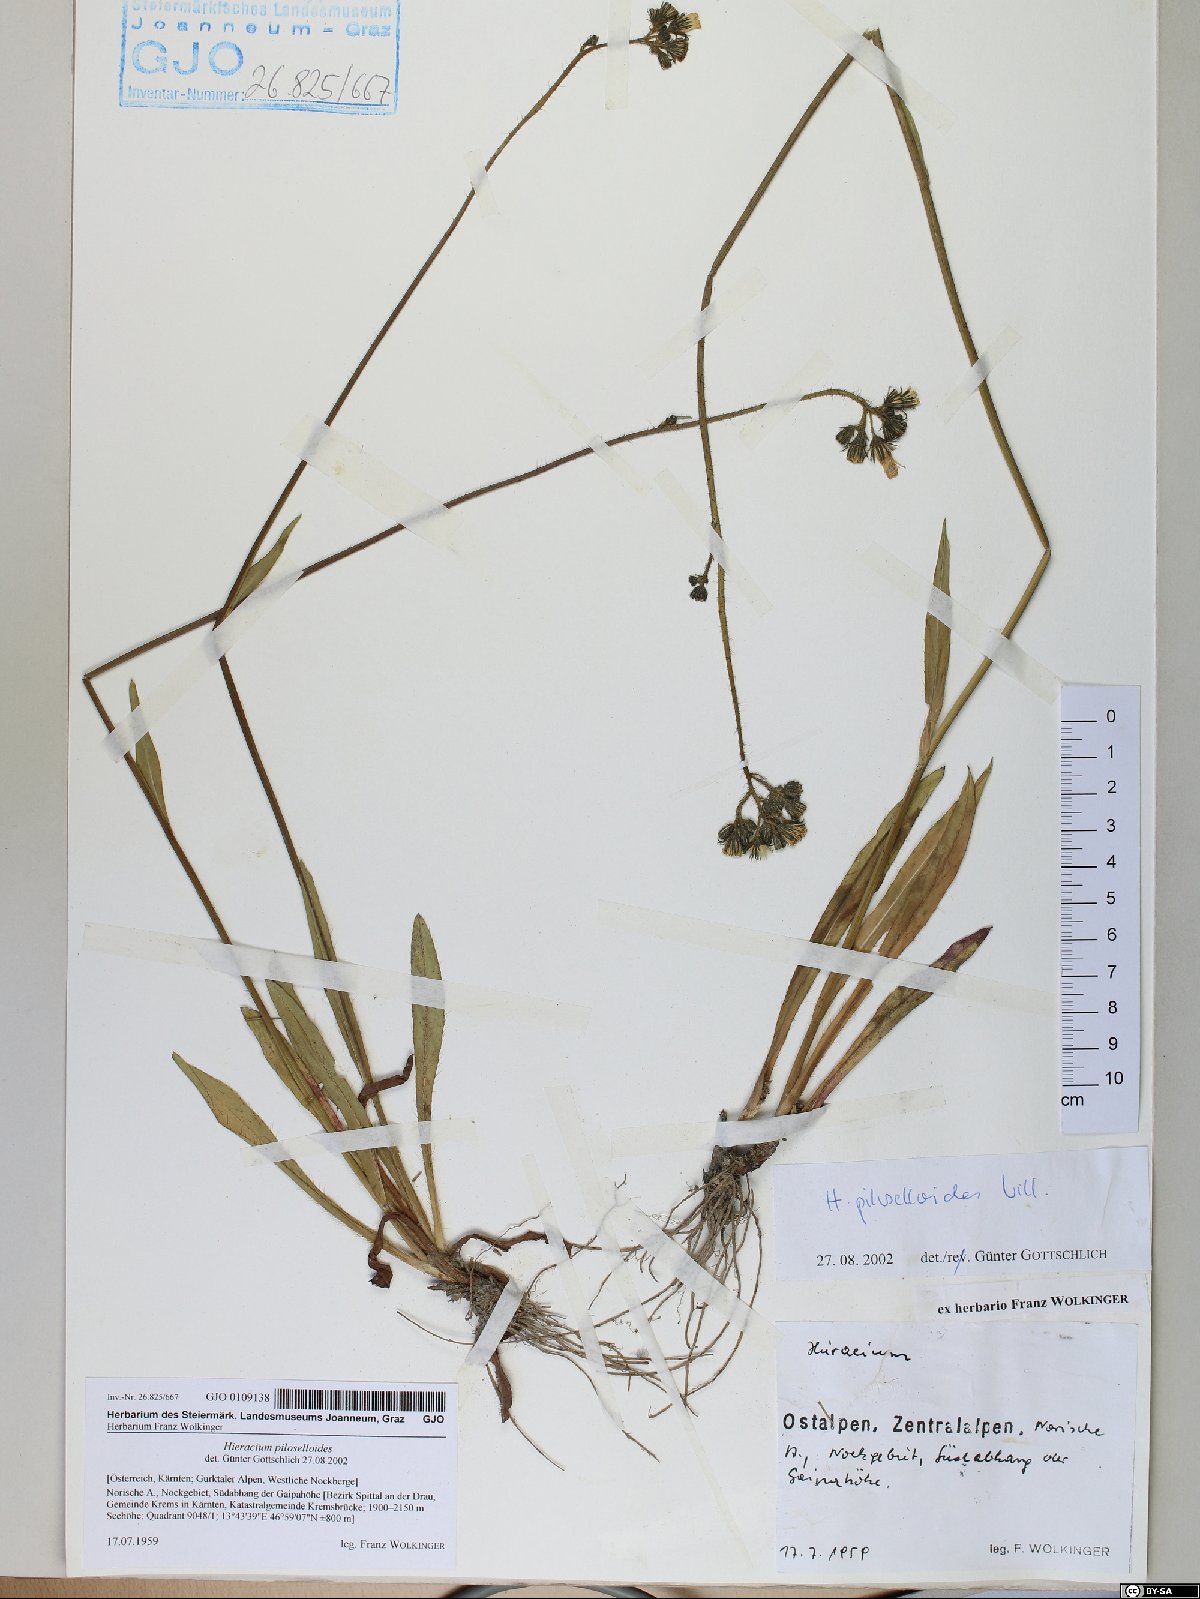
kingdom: Plantae
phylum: Tracheophyta
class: Magnoliopsida
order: Asterales
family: Asteraceae
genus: Pilosella
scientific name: Pilosella piloselloides
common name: Glaucous king-devil
